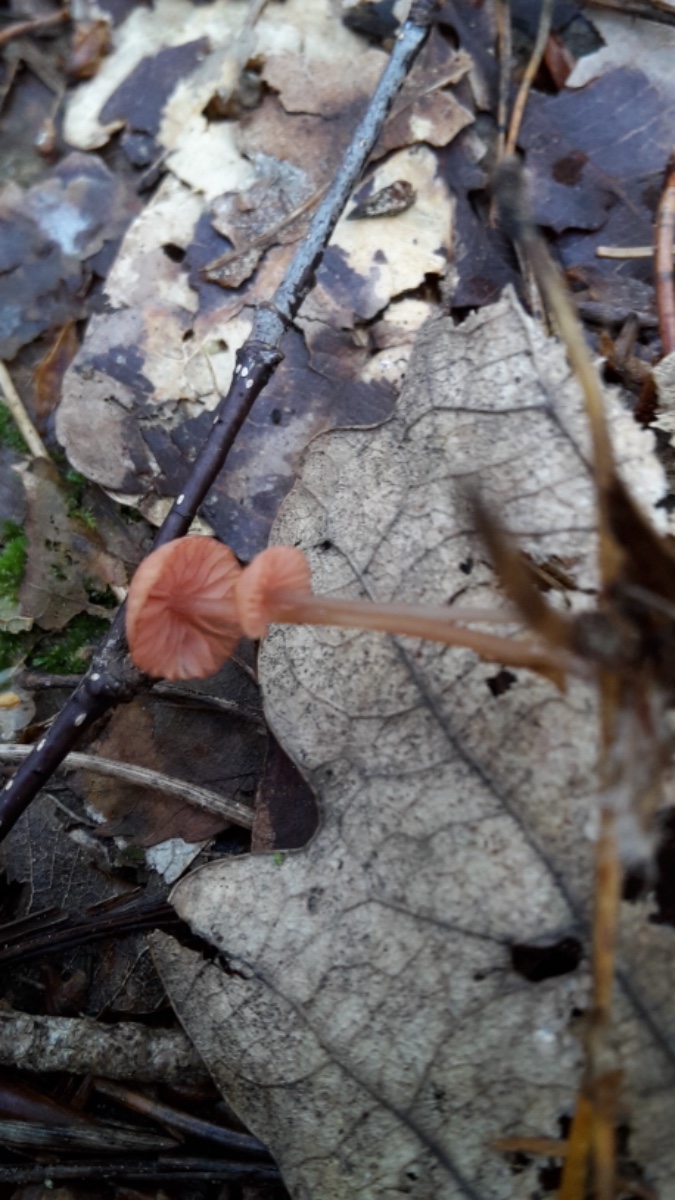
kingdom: Fungi
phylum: Basidiomycota
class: Agaricomycetes
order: Agaricales
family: Mycenaceae
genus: Mycena
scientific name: Mycena rosella
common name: rosenrød huesvamp
